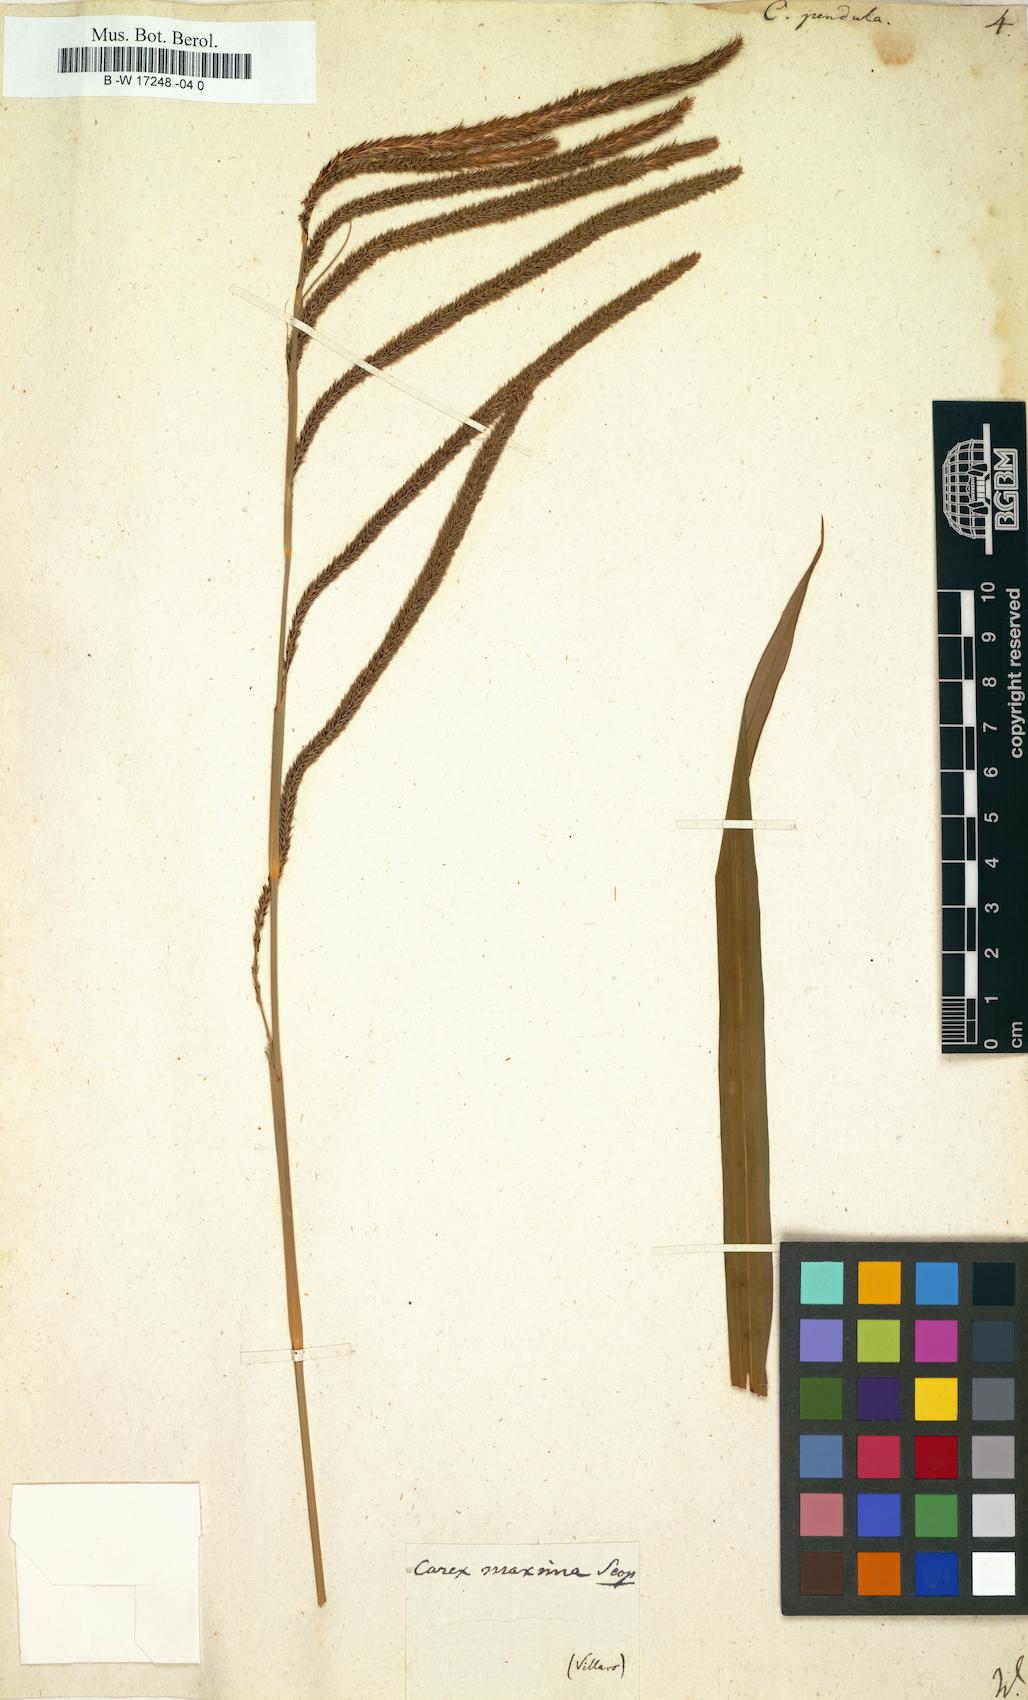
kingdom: Plantae
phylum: Tracheophyta
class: Liliopsida
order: Poales
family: Cyperaceae
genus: Carex
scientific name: Carex pendula
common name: Pendulous sedge
